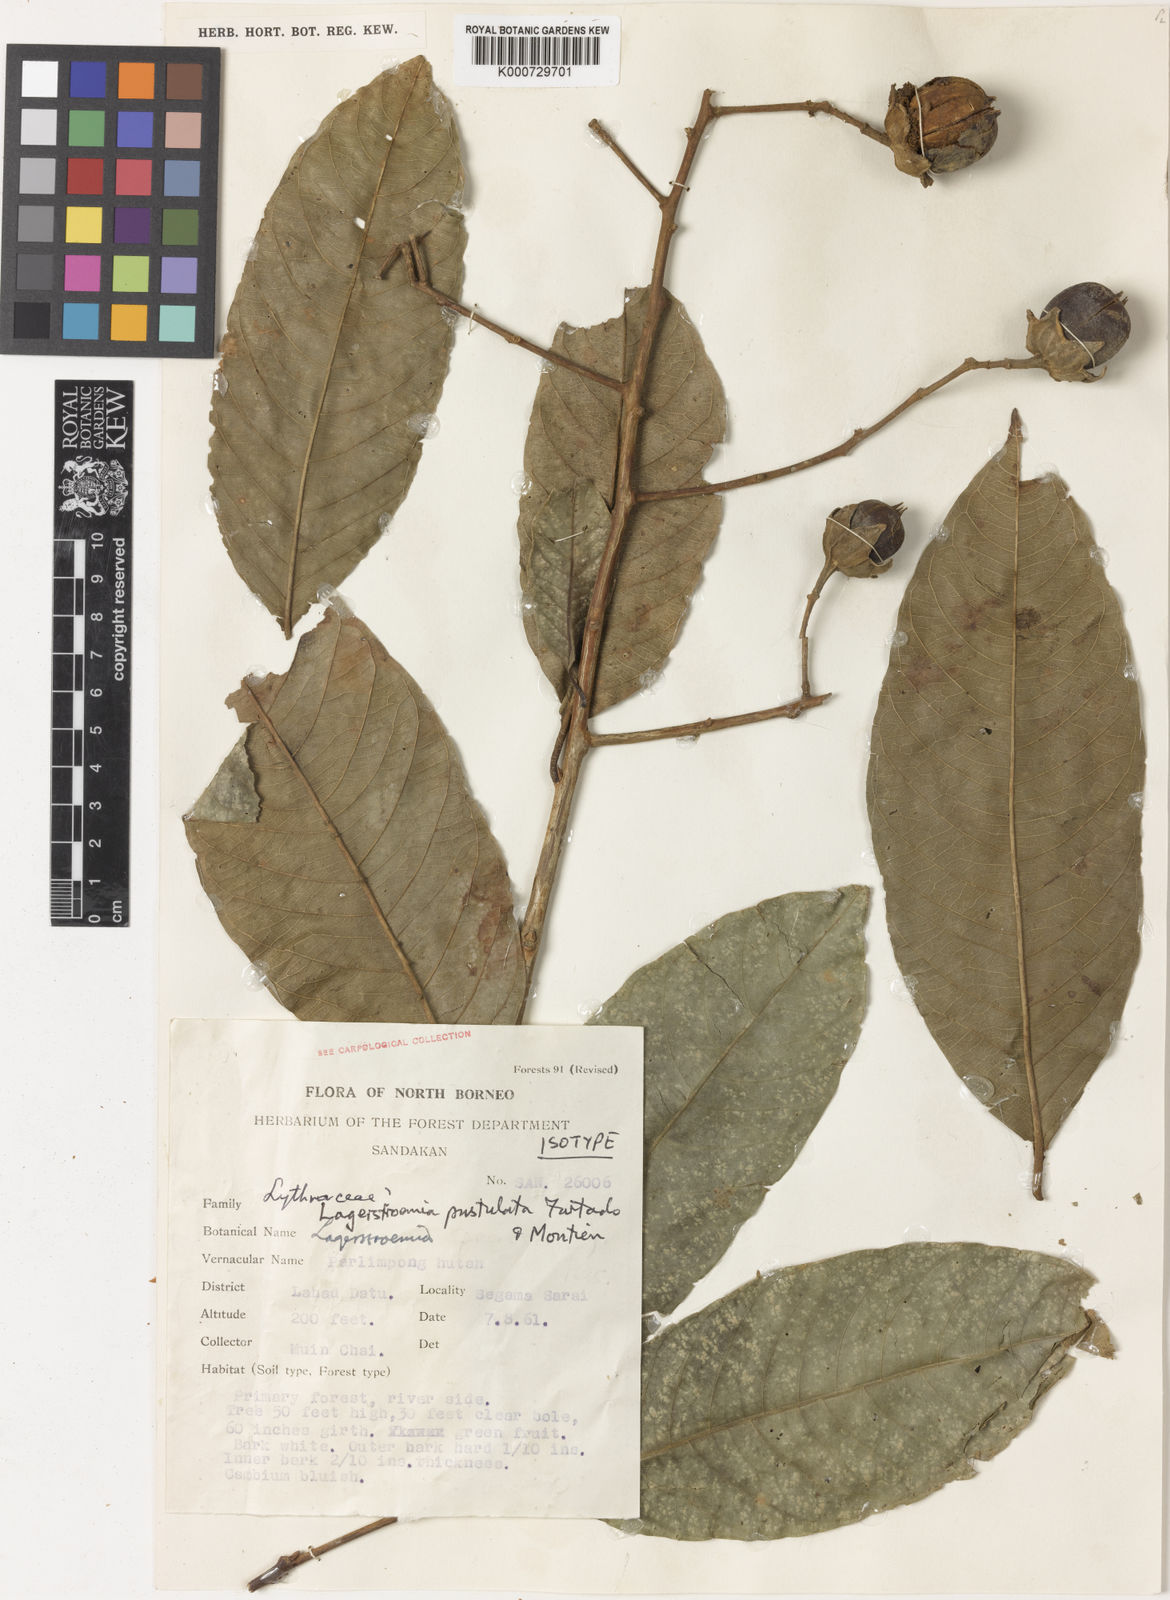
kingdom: Plantae
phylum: Tracheophyta
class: Magnoliopsida
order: Myrtales
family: Lythraceae
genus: Lagerstroemia
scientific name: Lagerstroemia pustulata
